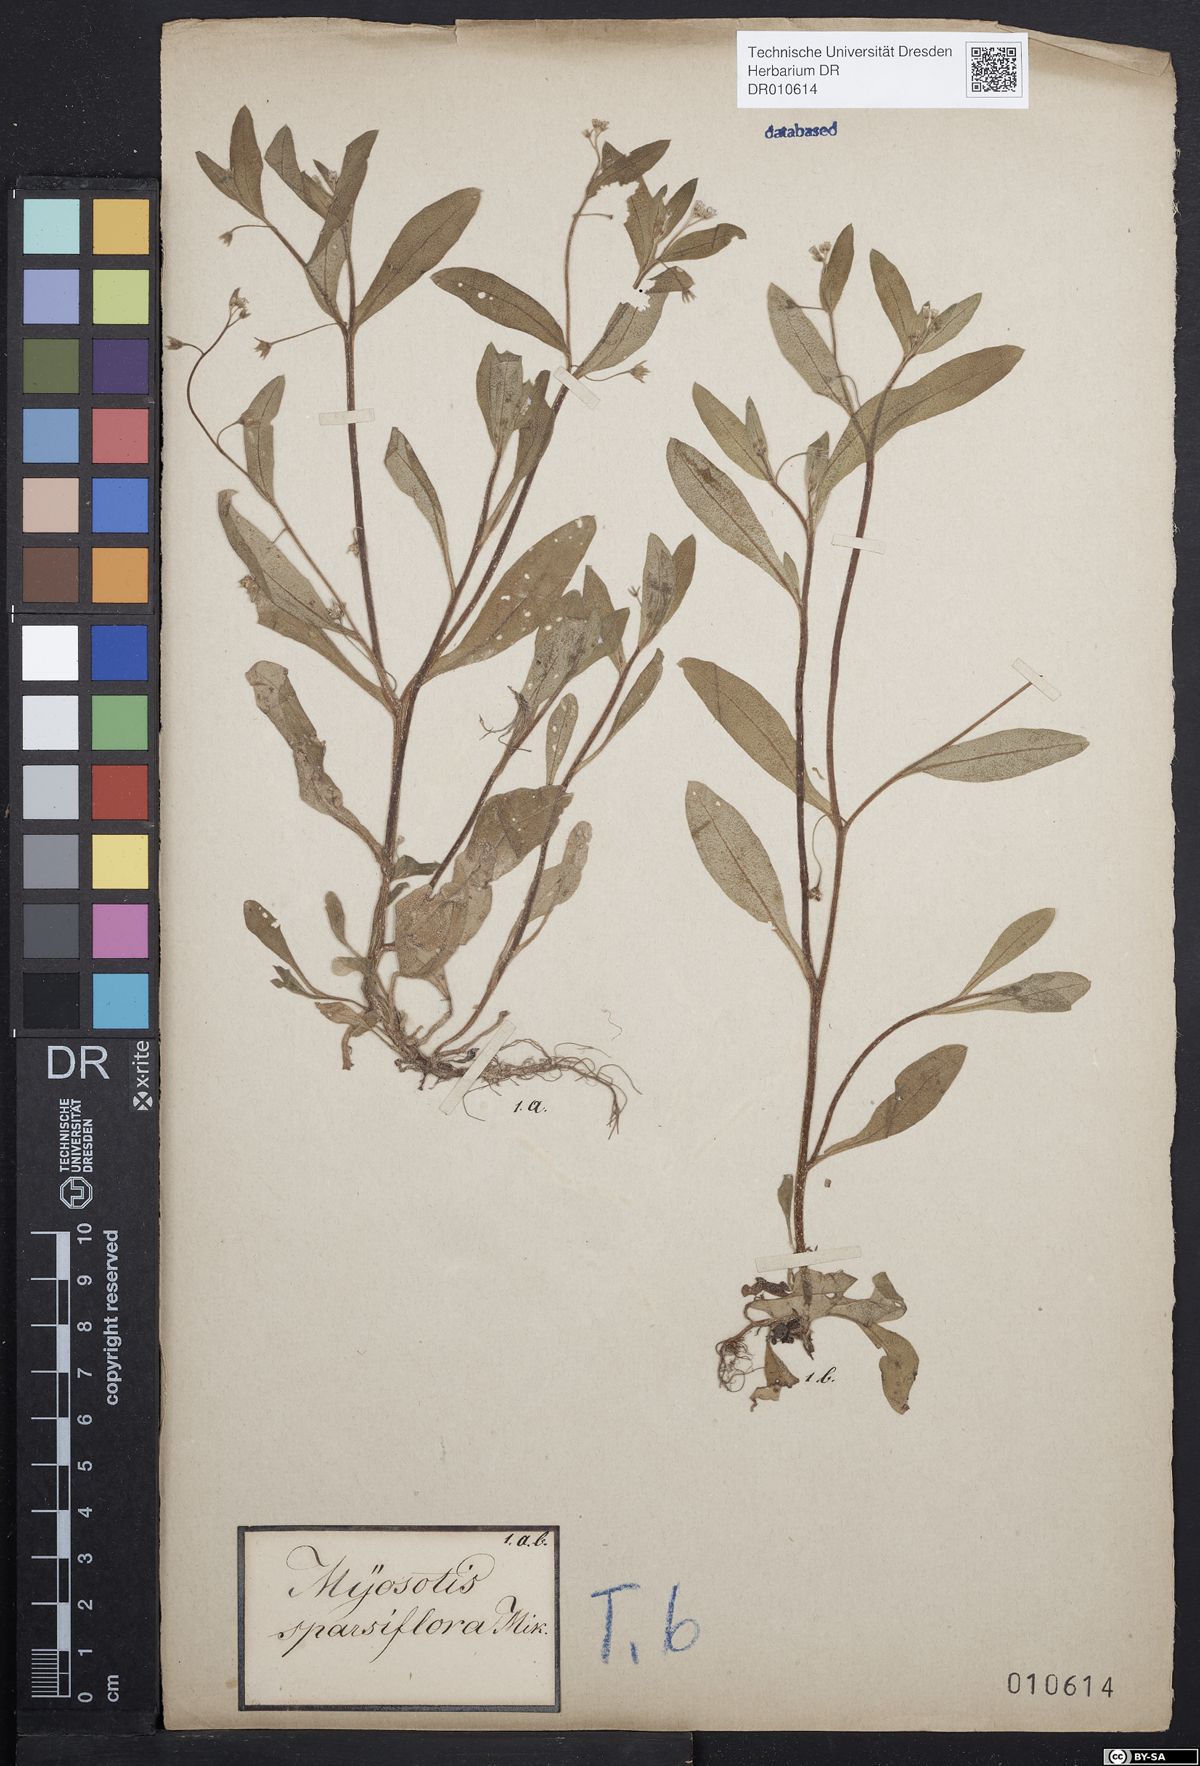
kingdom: Plantae
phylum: Tracheophyta
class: Magnoliopsida
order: Boraginales
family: Boraginaceae
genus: Myosotis
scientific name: Myosotis sparsiflora
